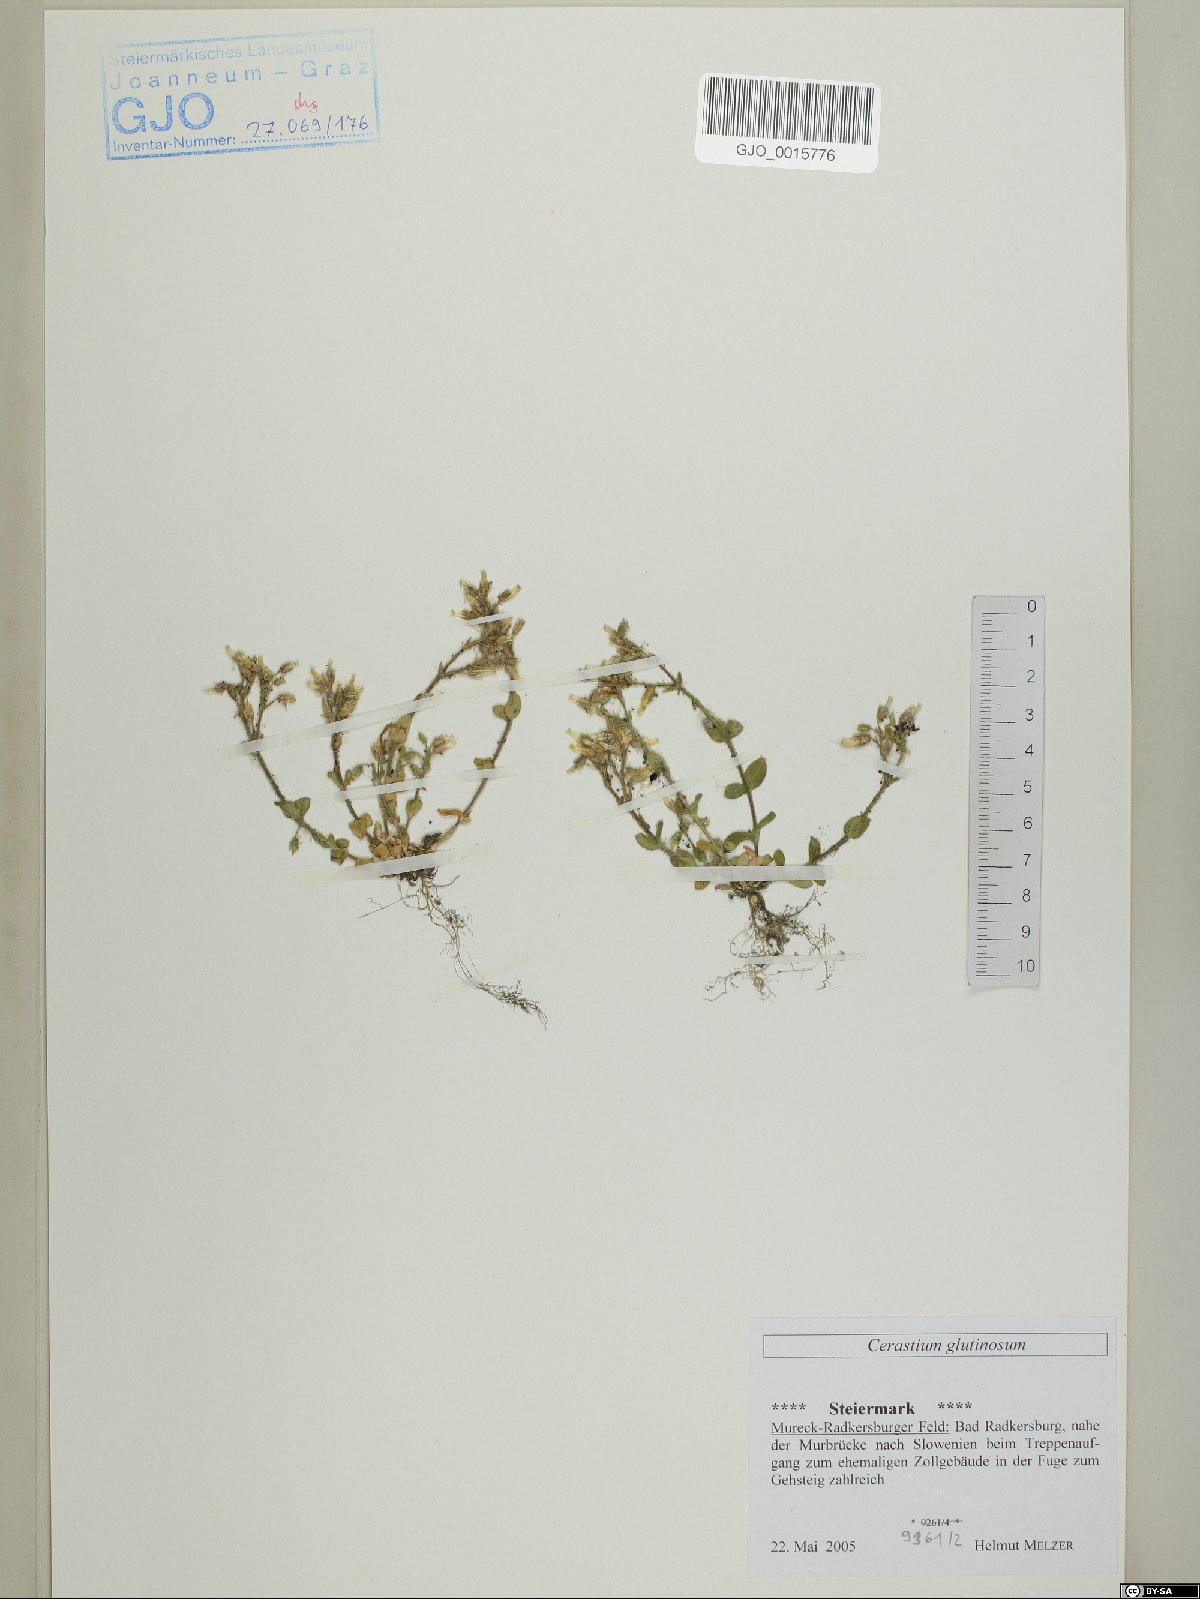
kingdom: Plantae
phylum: Tracheophyta
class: Magnoliopsida
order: Caryophyllales
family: Caryophyllaceae
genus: Cerastium
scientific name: Cerastium glutinosum
